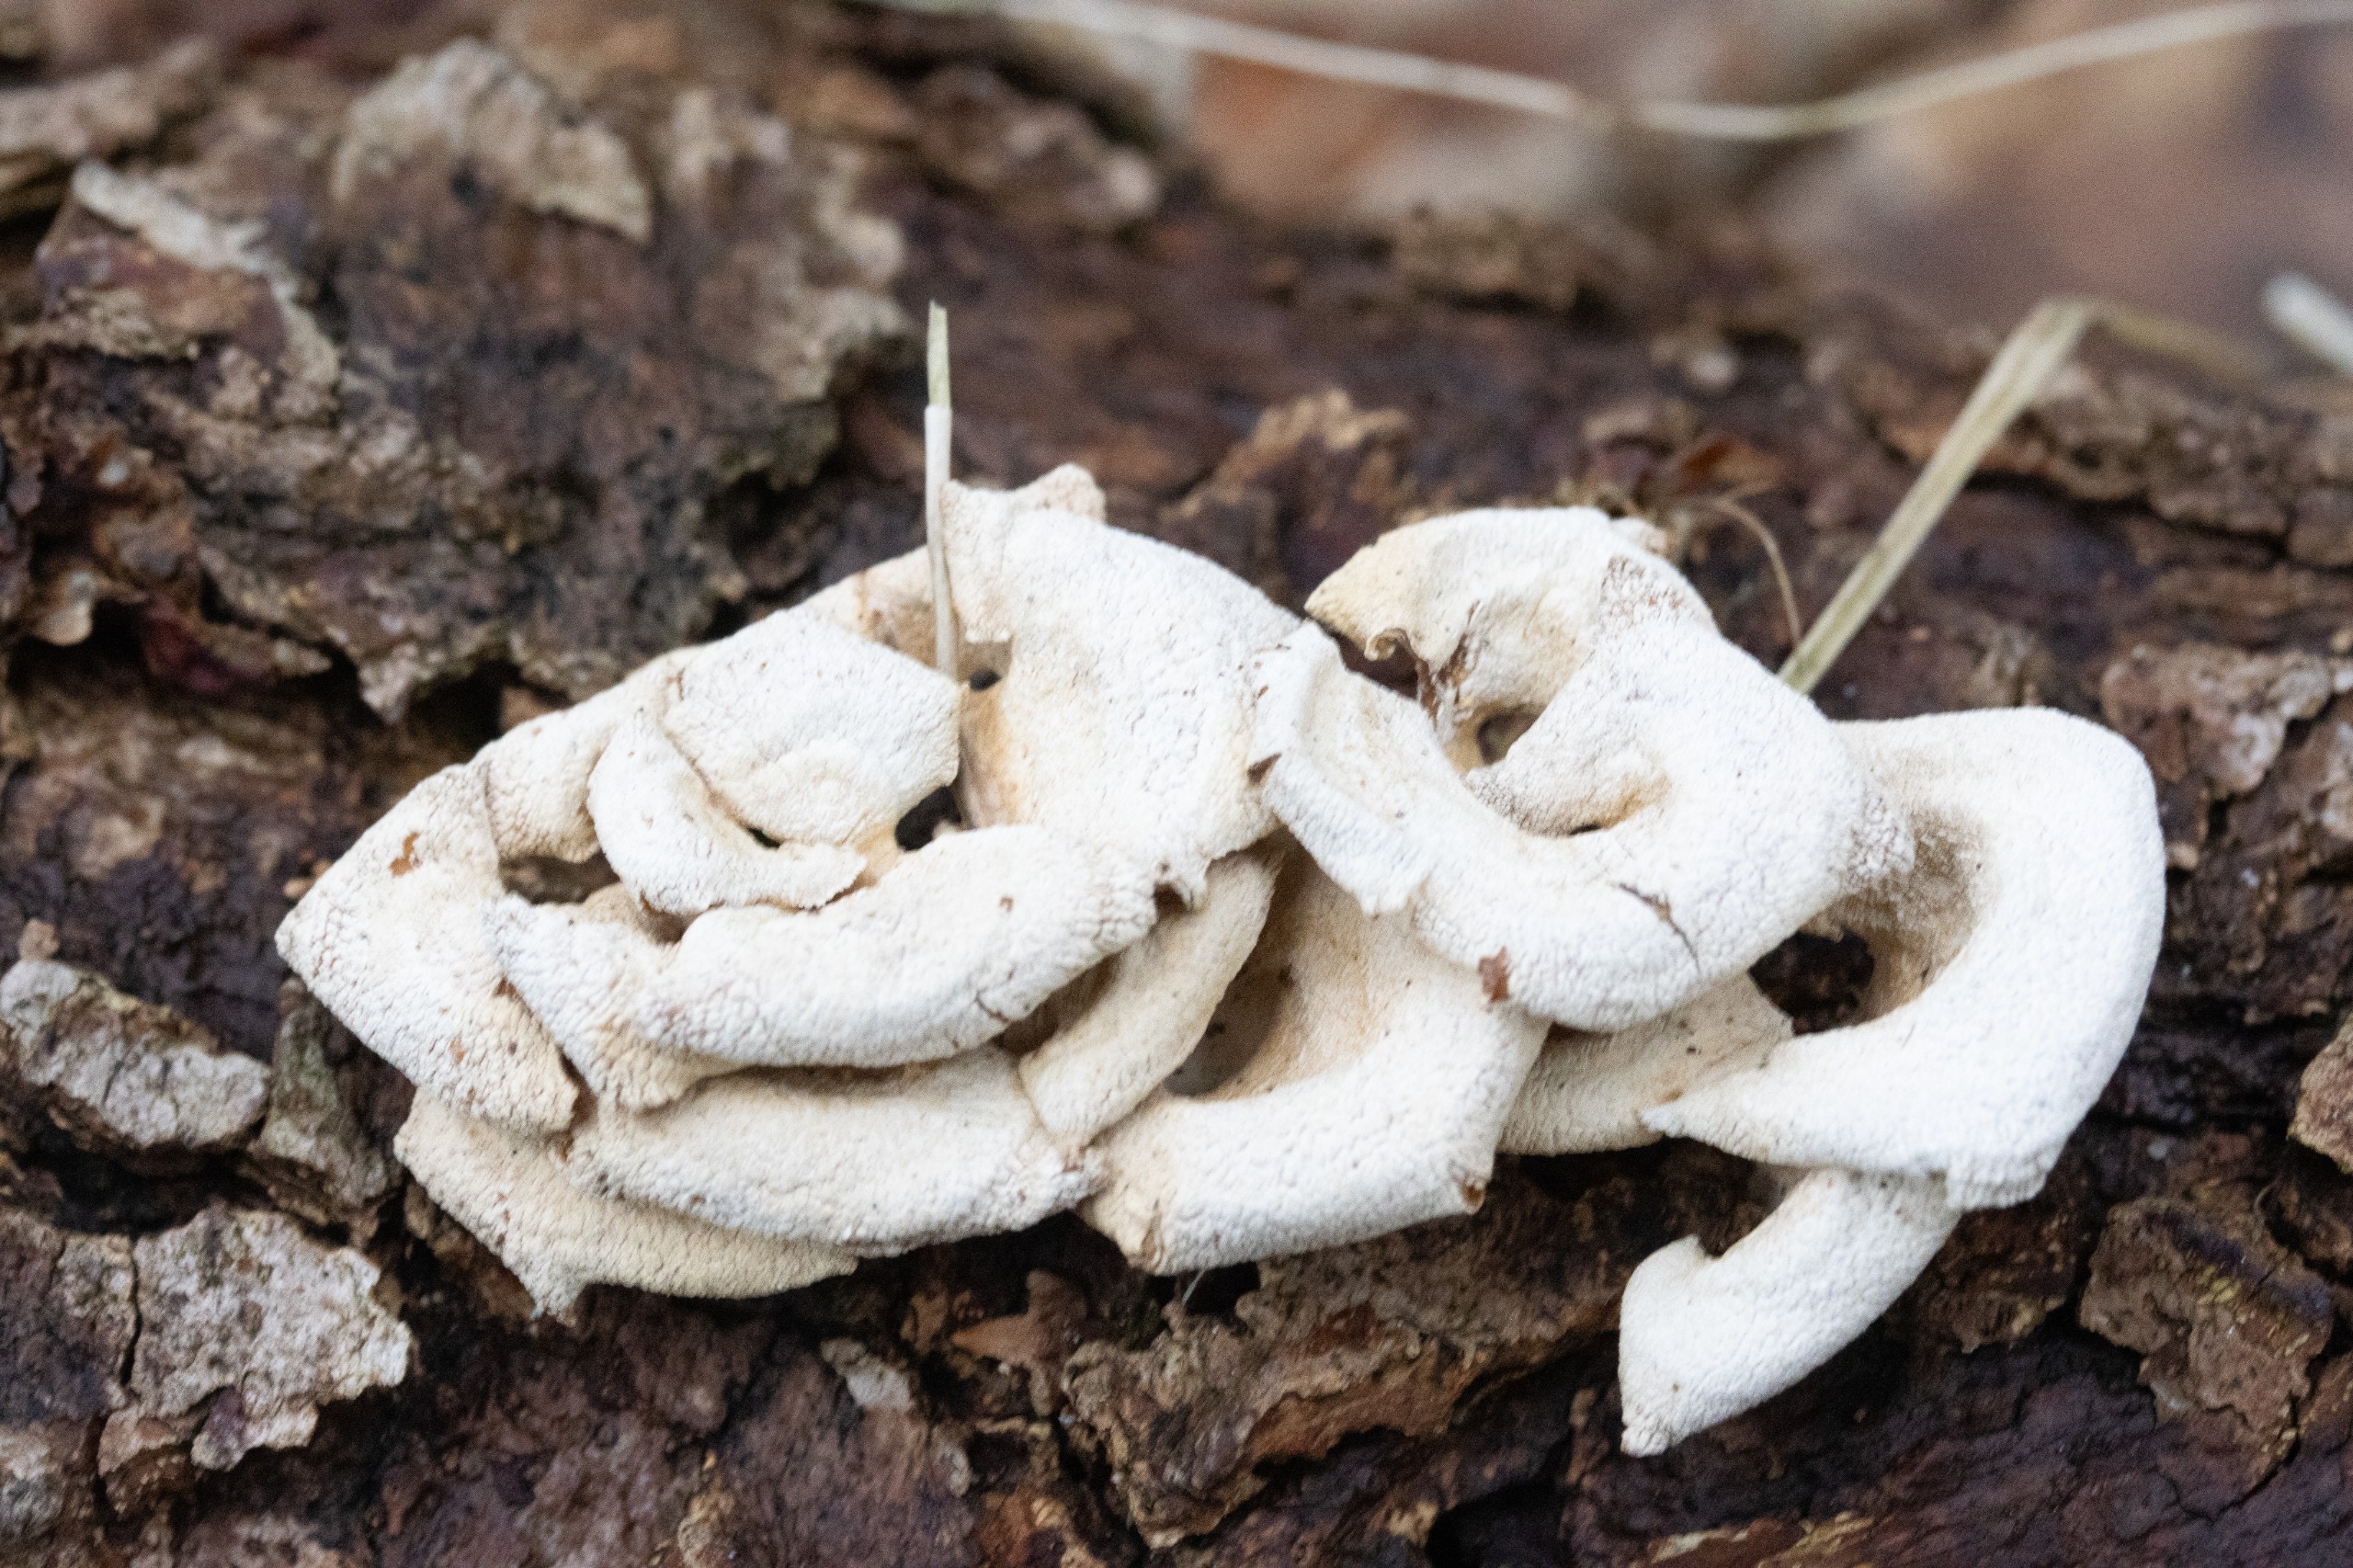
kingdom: Fungi
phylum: Basidiomycota
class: Agaricomycetes
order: Agaricales
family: Mycenaceae
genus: Panellus
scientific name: Panellus stipticus
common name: Kliddet epaulethat
